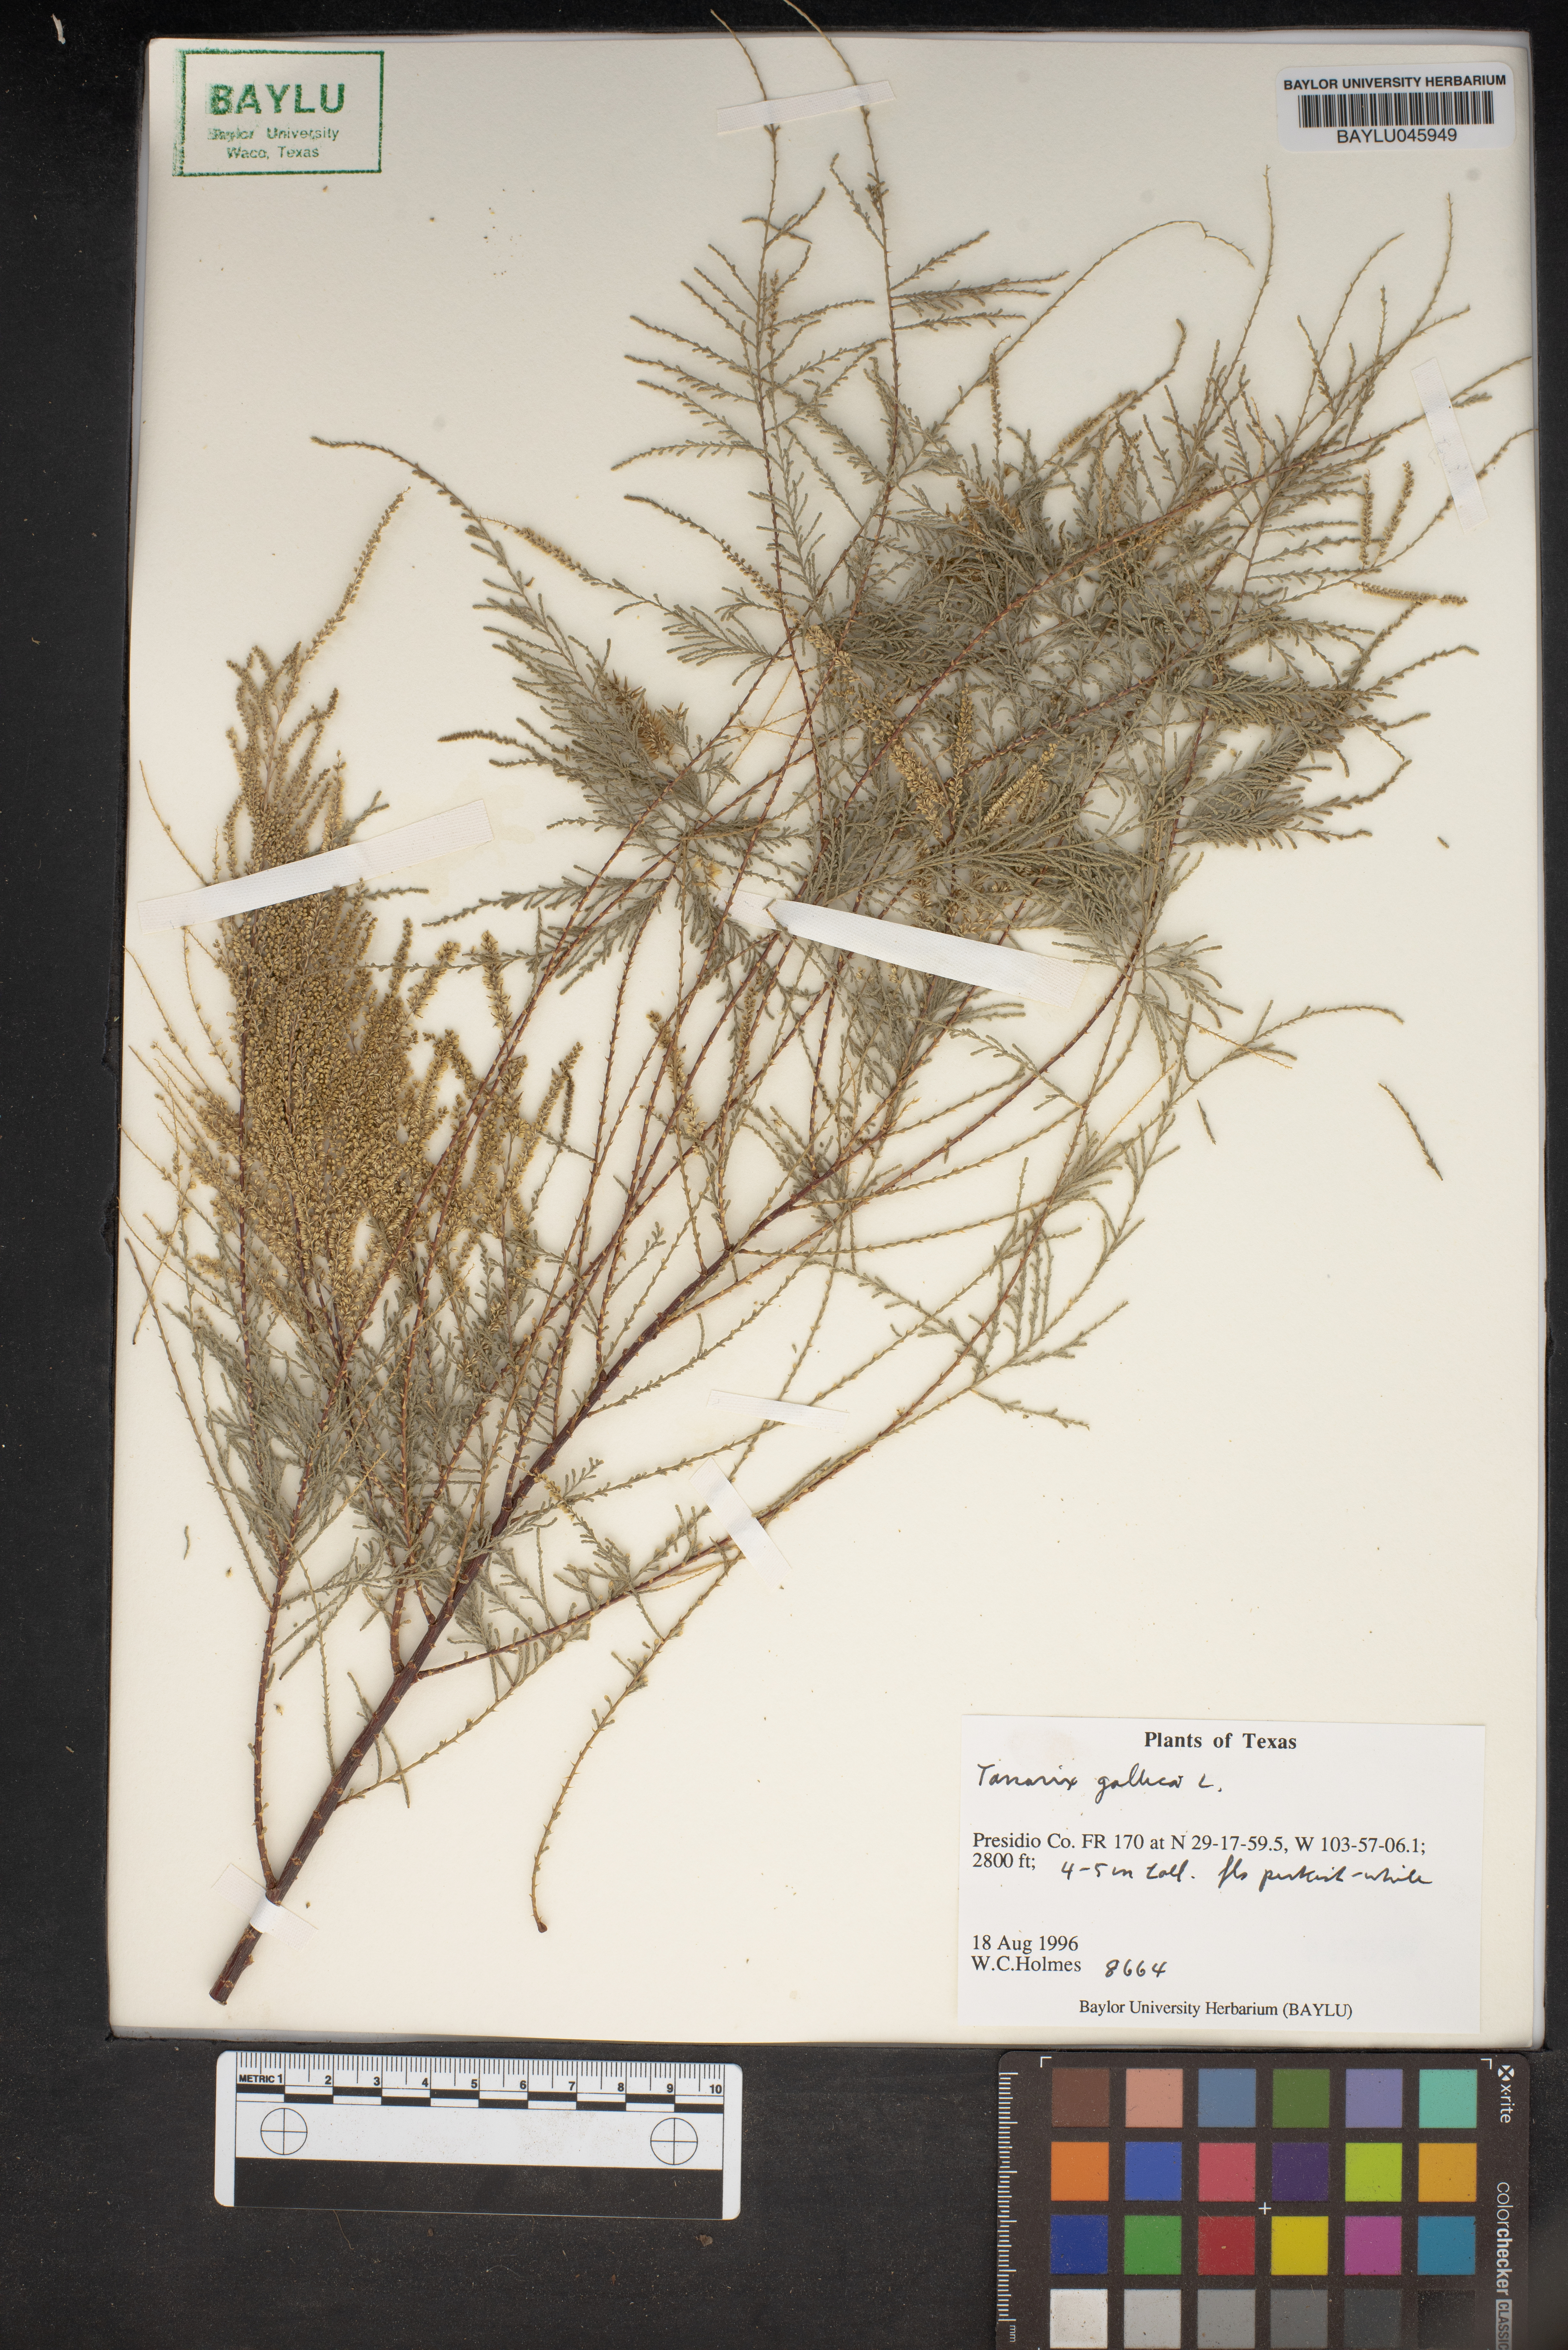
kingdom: Plantae
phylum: Tracheophyta
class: Magnoliopsida
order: Caryophyllales
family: Tamaricaceae
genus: Tamarix
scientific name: Tamarix gallica
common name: Tamarisk
